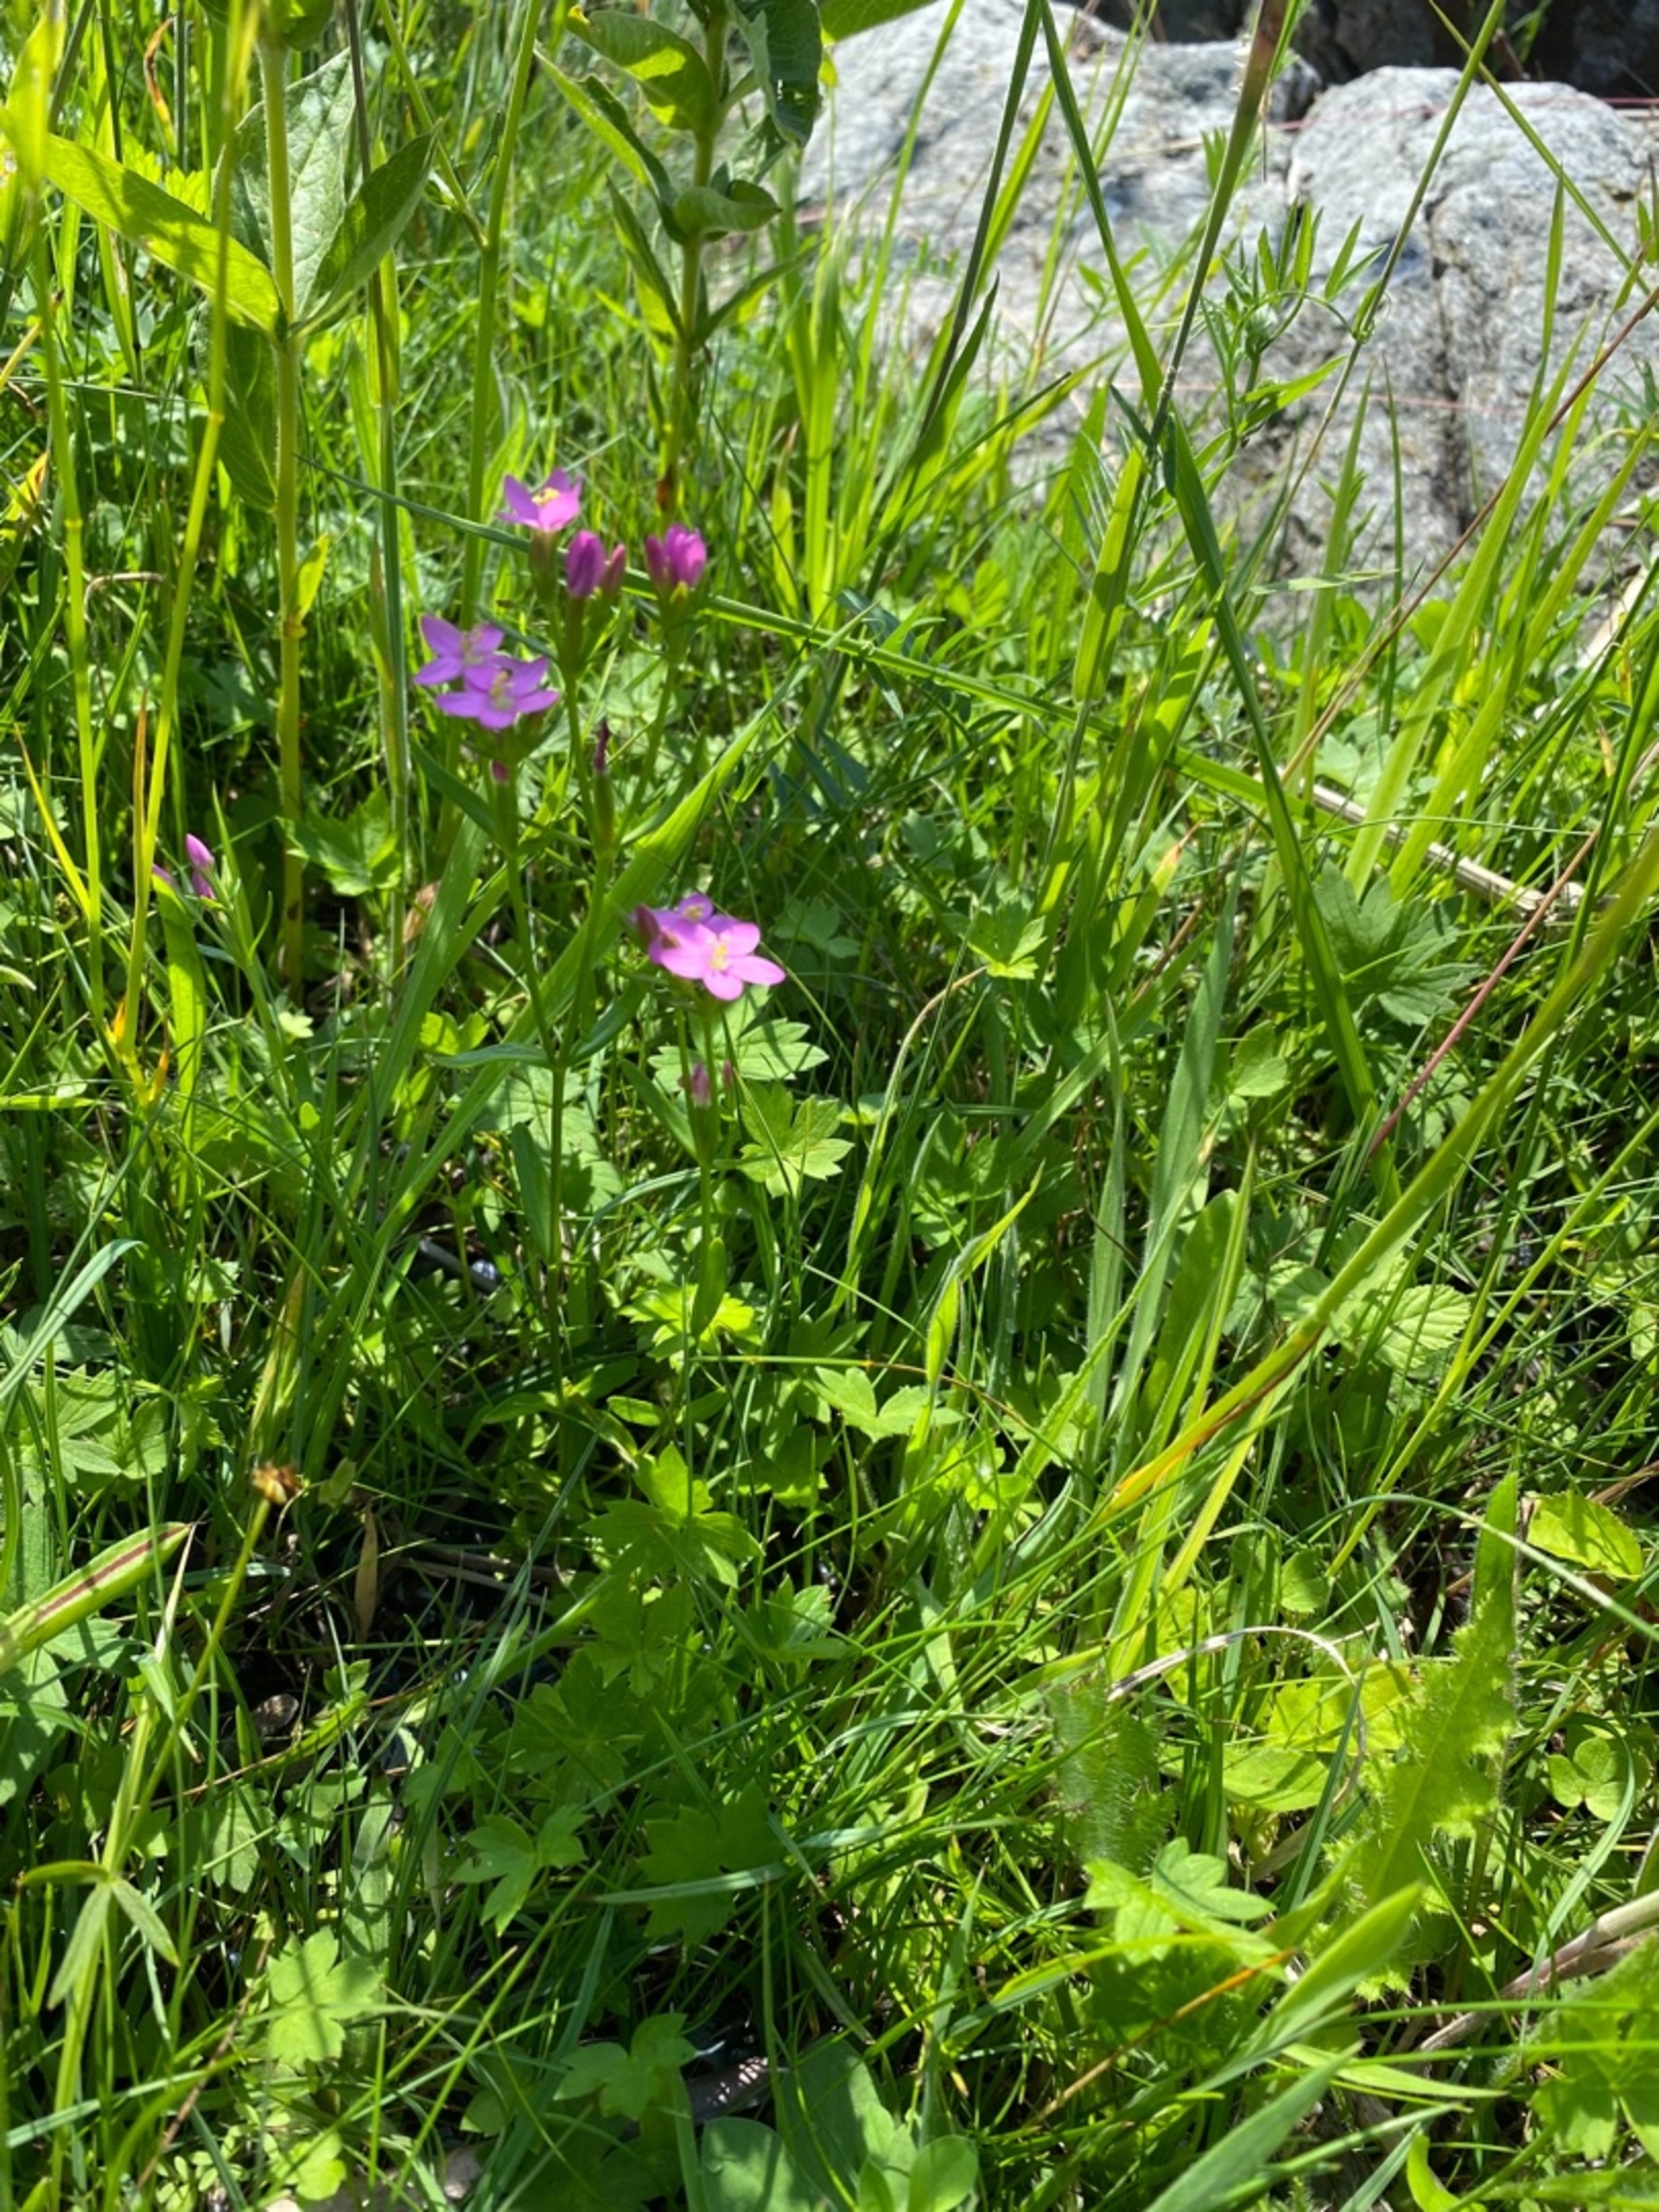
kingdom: Plantae
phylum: Tracheophyta
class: Magnoliopsida
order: Gentianales
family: Gentianaceae
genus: Centaurium
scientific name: Centaurium littorale
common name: Strand-tusindgylden
